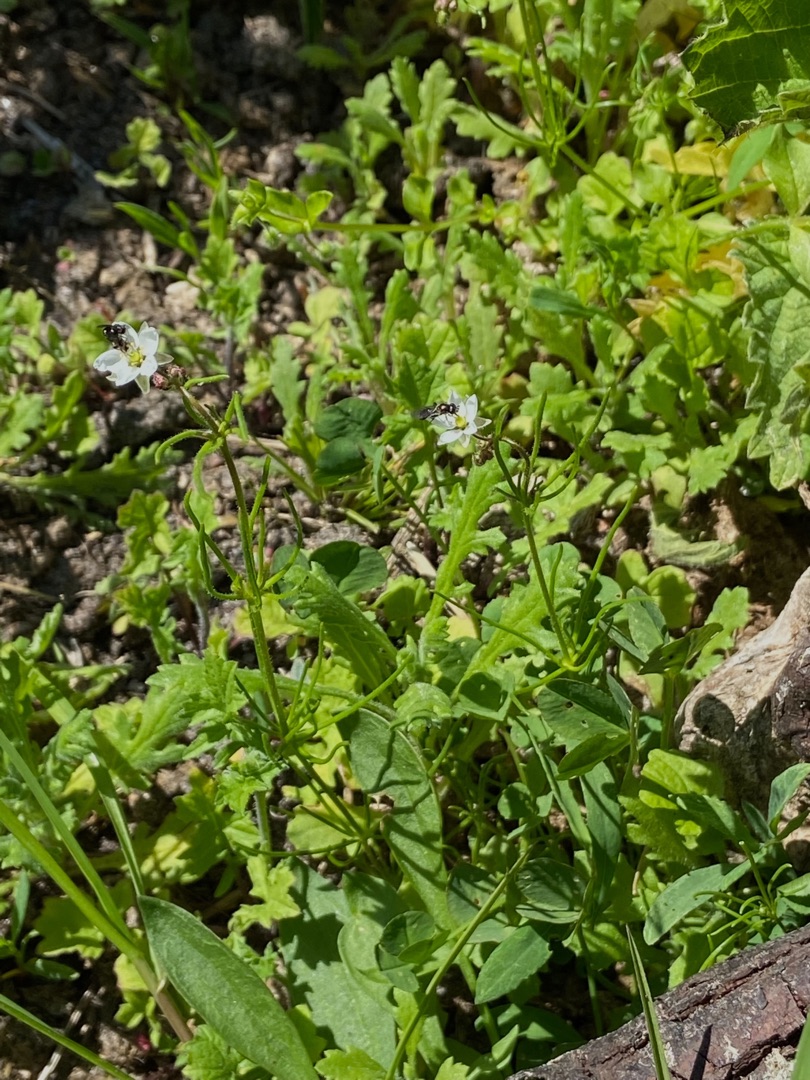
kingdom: Plantae
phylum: Tracheophyta
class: Magnoliopsida
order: Caryophyllales
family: Caryophyllaceae
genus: Spergula
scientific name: Spergula arvensis
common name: Almindelig spergel (underart)
